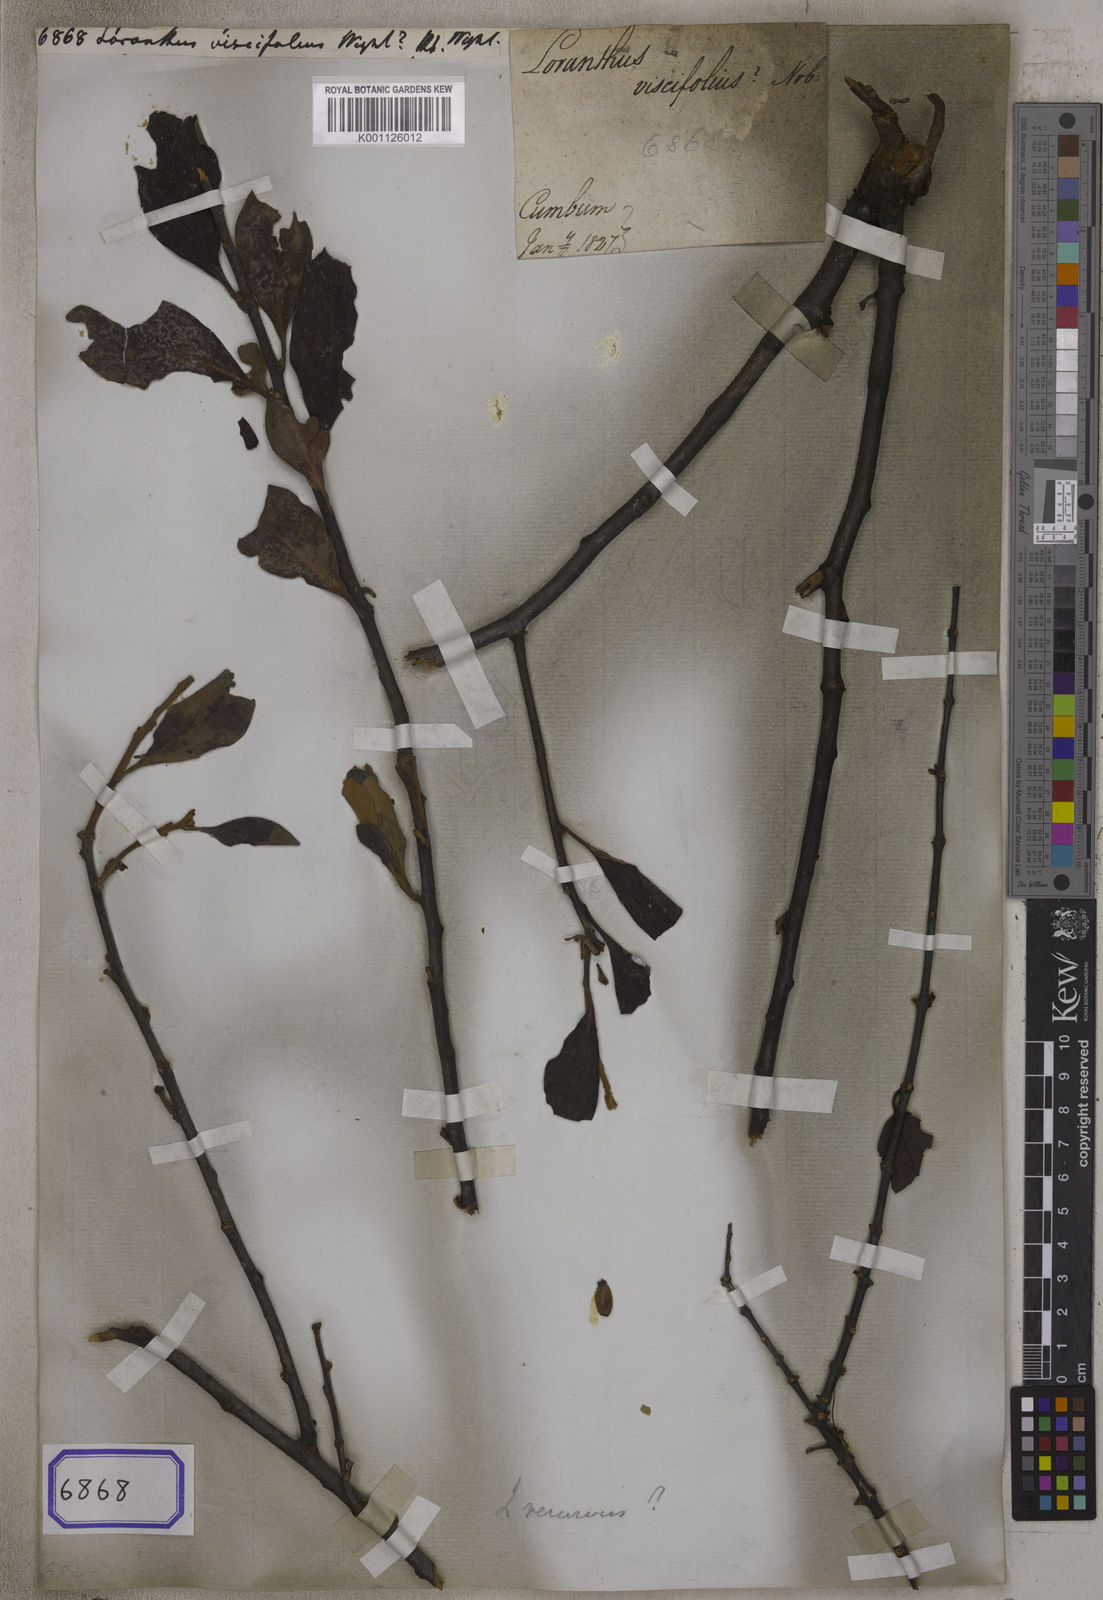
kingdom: Plantae
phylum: Tracheophyta
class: Magnoliopsida
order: Santalales
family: Loranthaceae
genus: Taxillus
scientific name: Taxillus cuneatus
